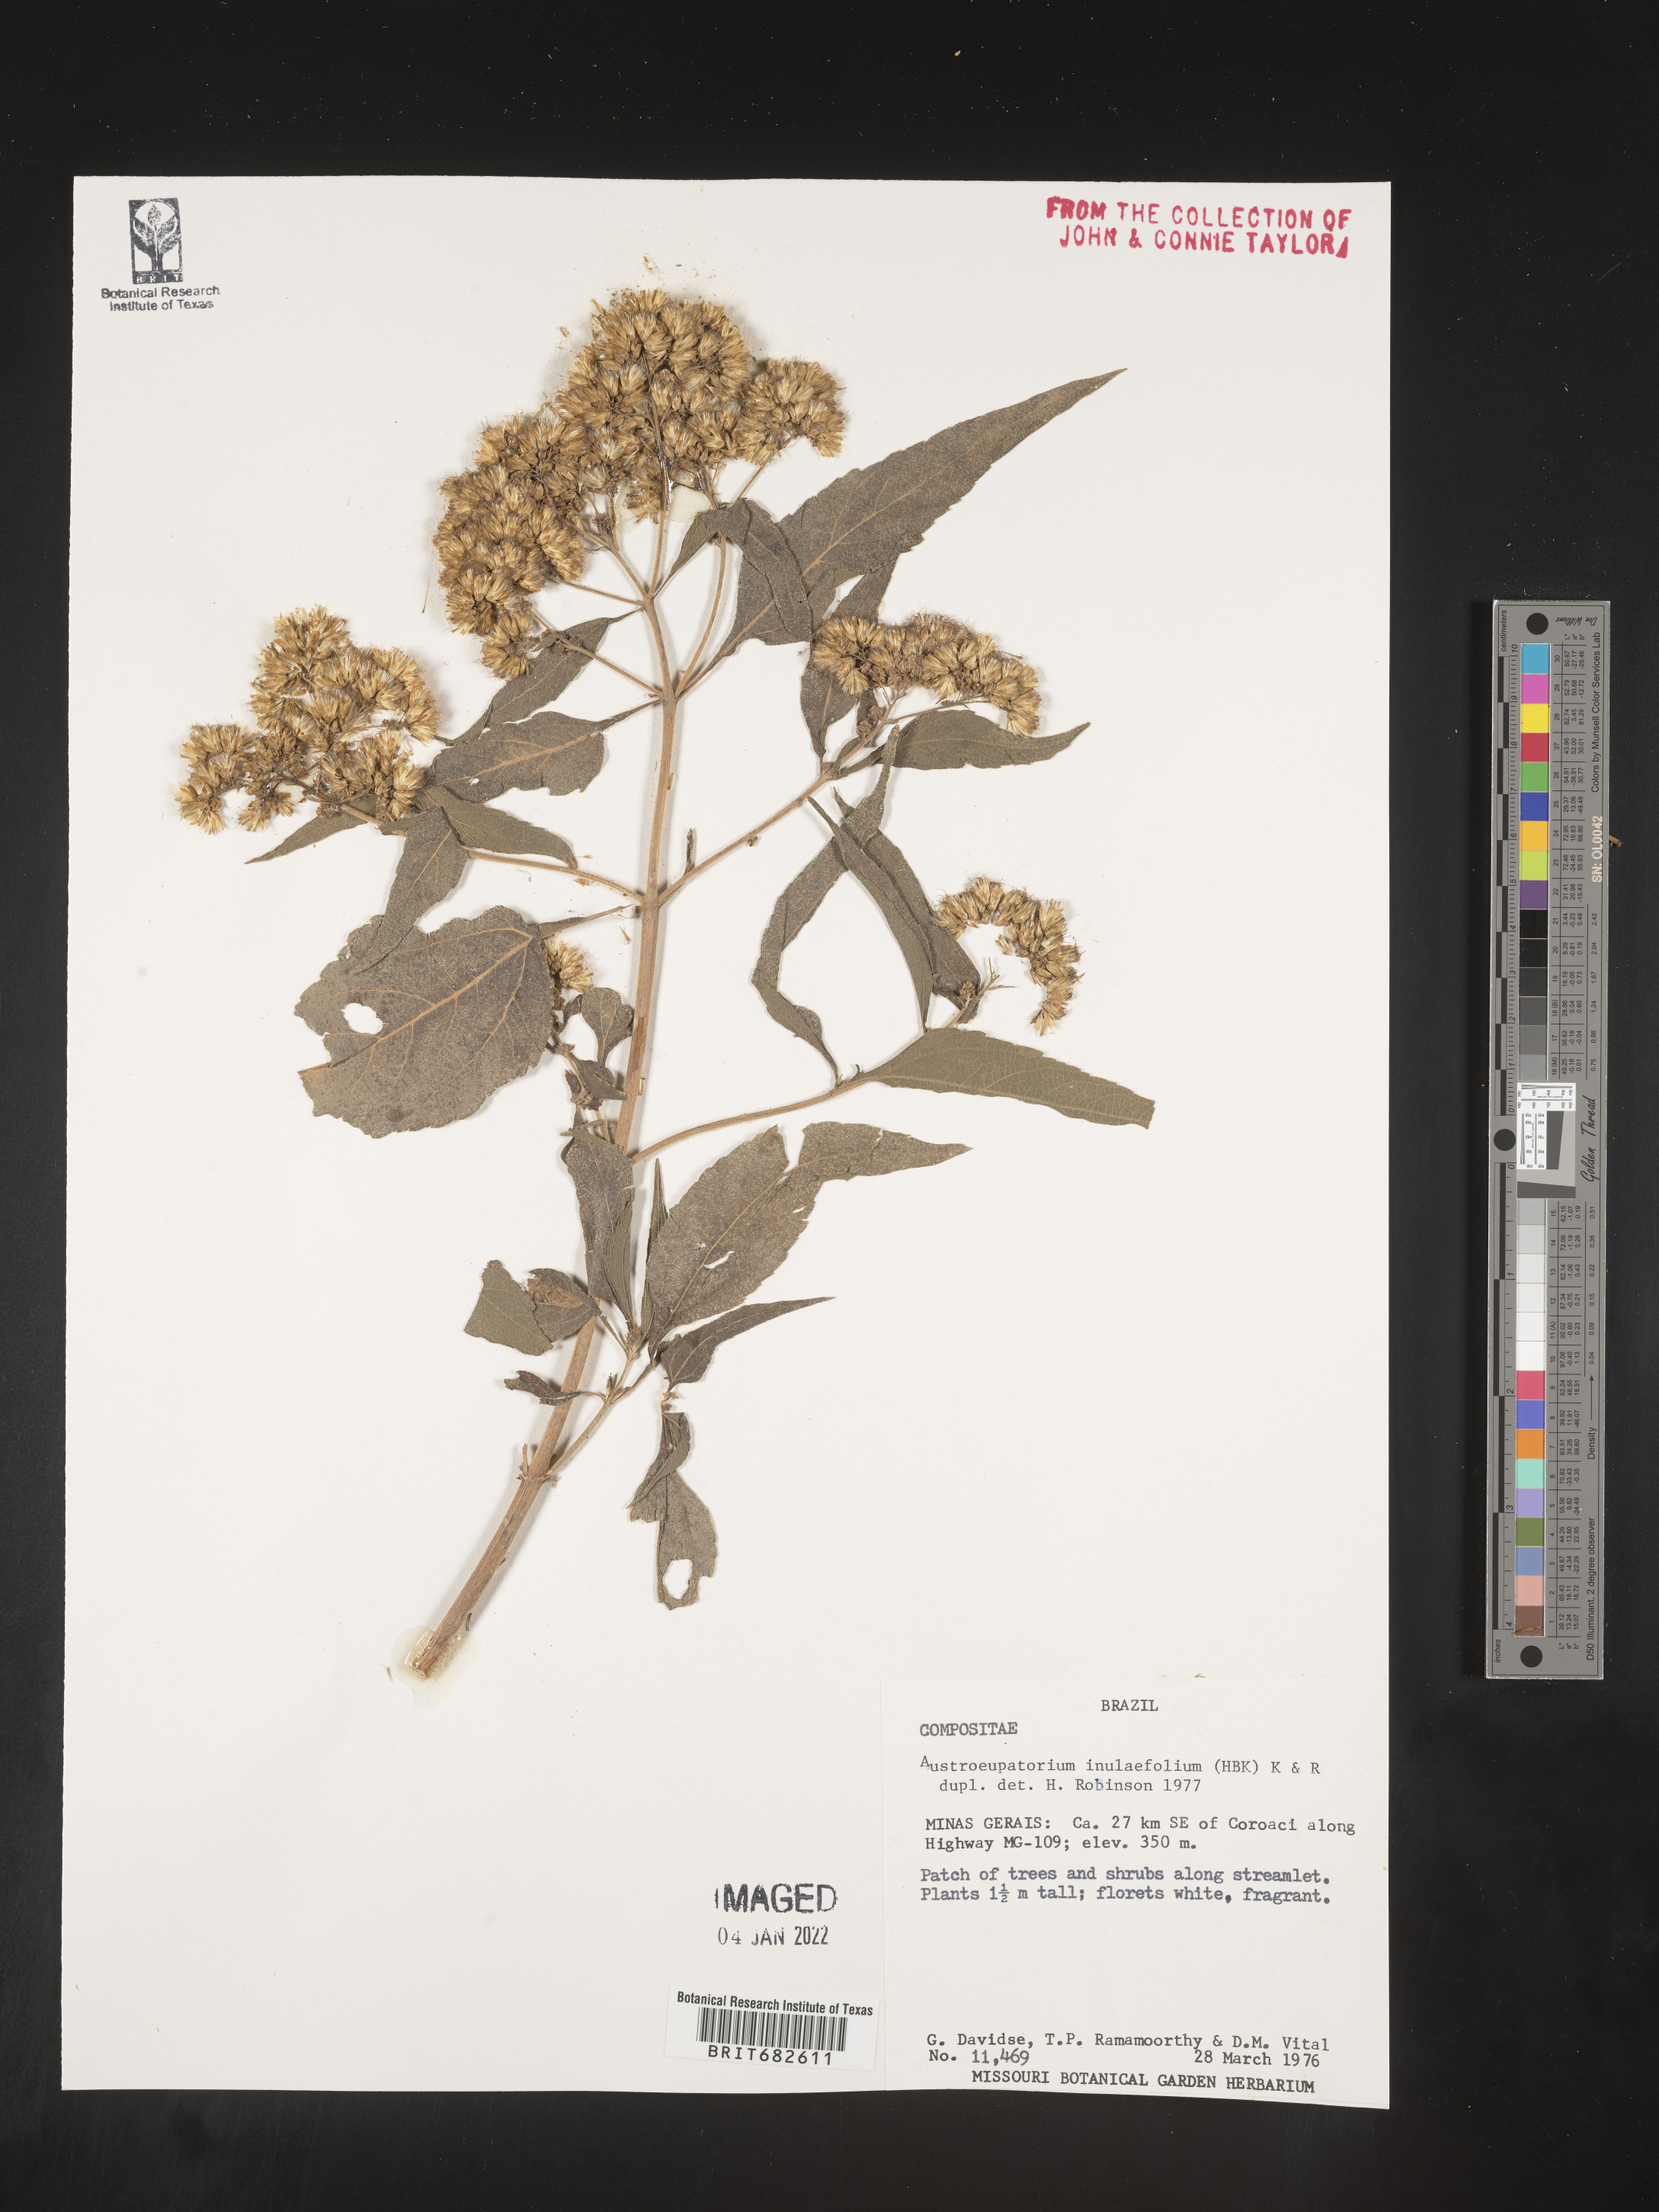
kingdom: Plantae
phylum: Tracheophyta
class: Magnoliopsida
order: Asterales
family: Asteraceae
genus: Austroeupatorium
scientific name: Austroeupatorium
